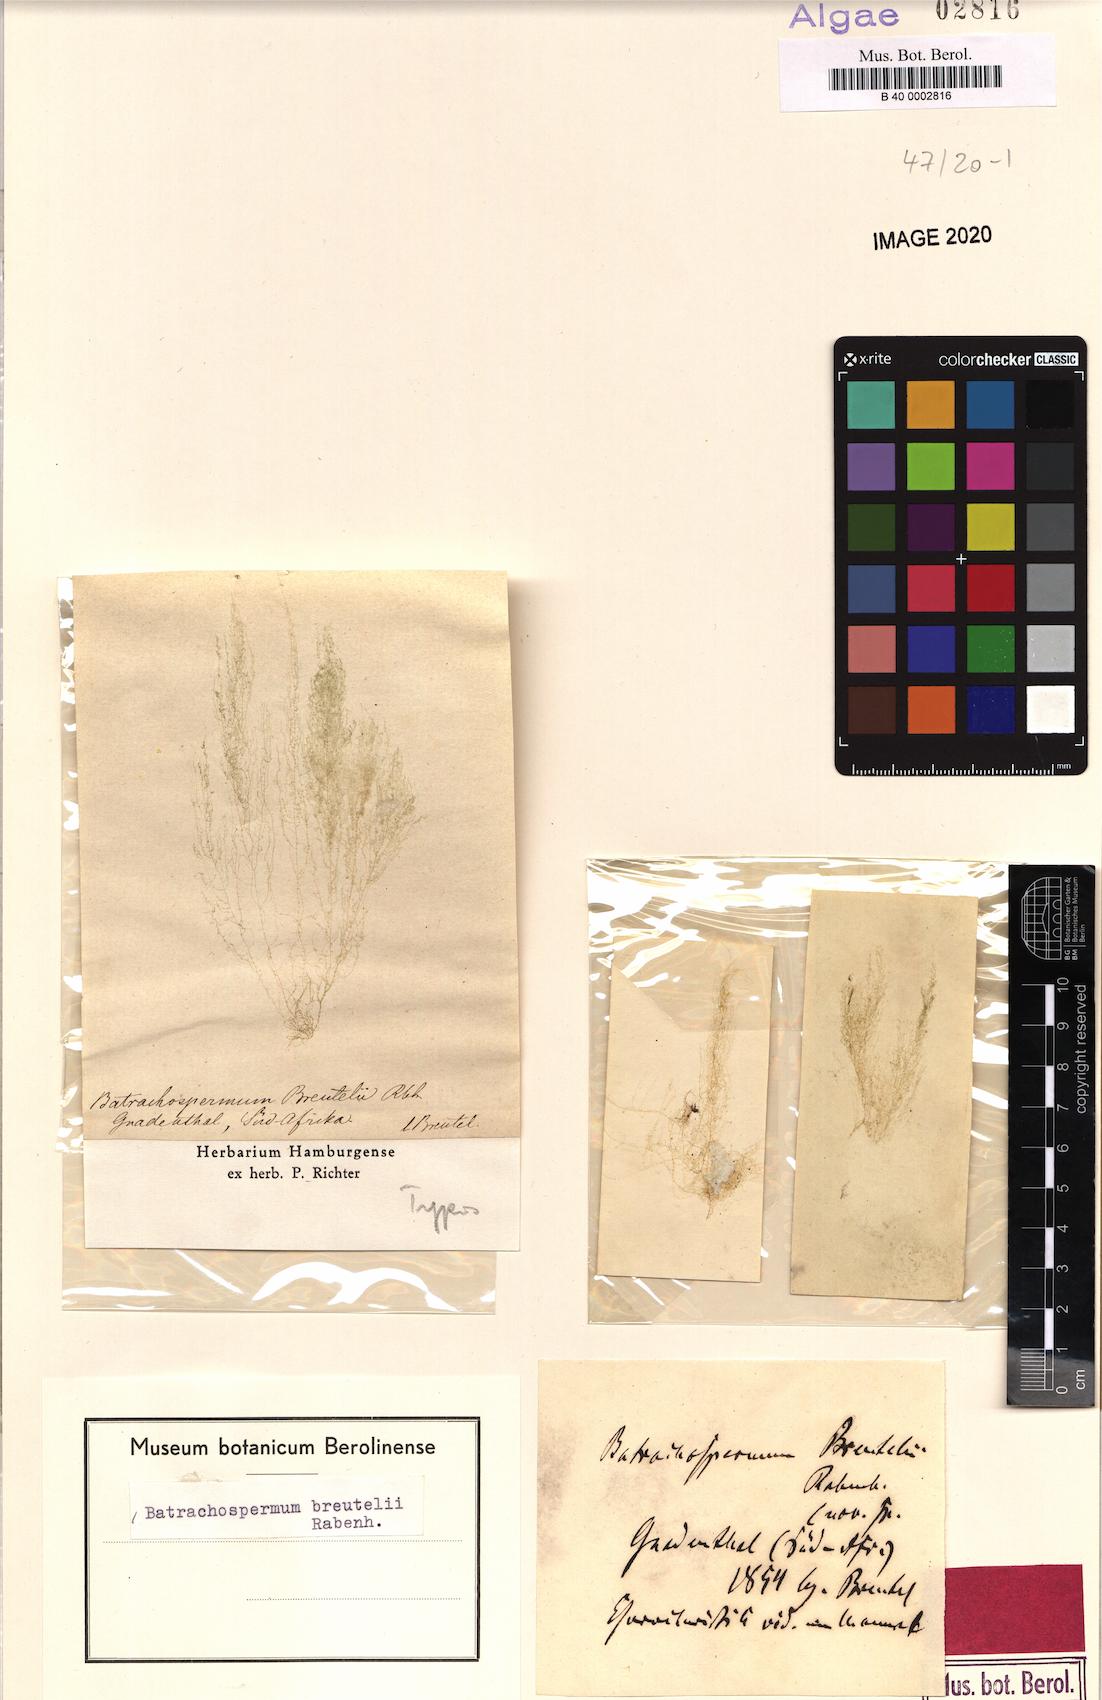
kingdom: Plantae
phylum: Rhodophyta
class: Florideophyceae
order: Batrachospermales
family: Batrachospermaceae
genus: Batrachospermum
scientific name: Batrachospermum
